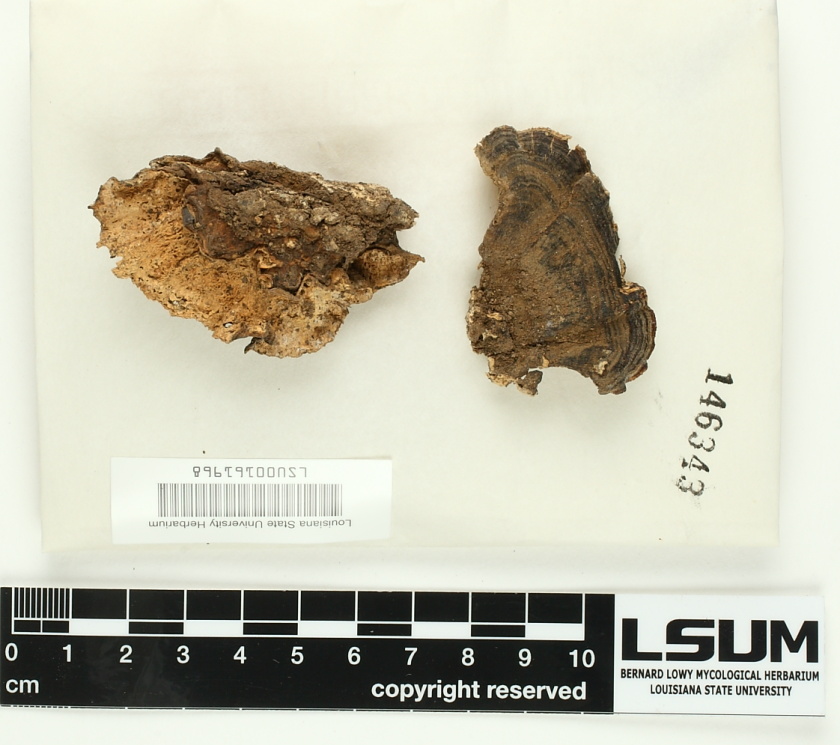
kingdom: Fungi
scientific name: Fungi
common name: Fungi
